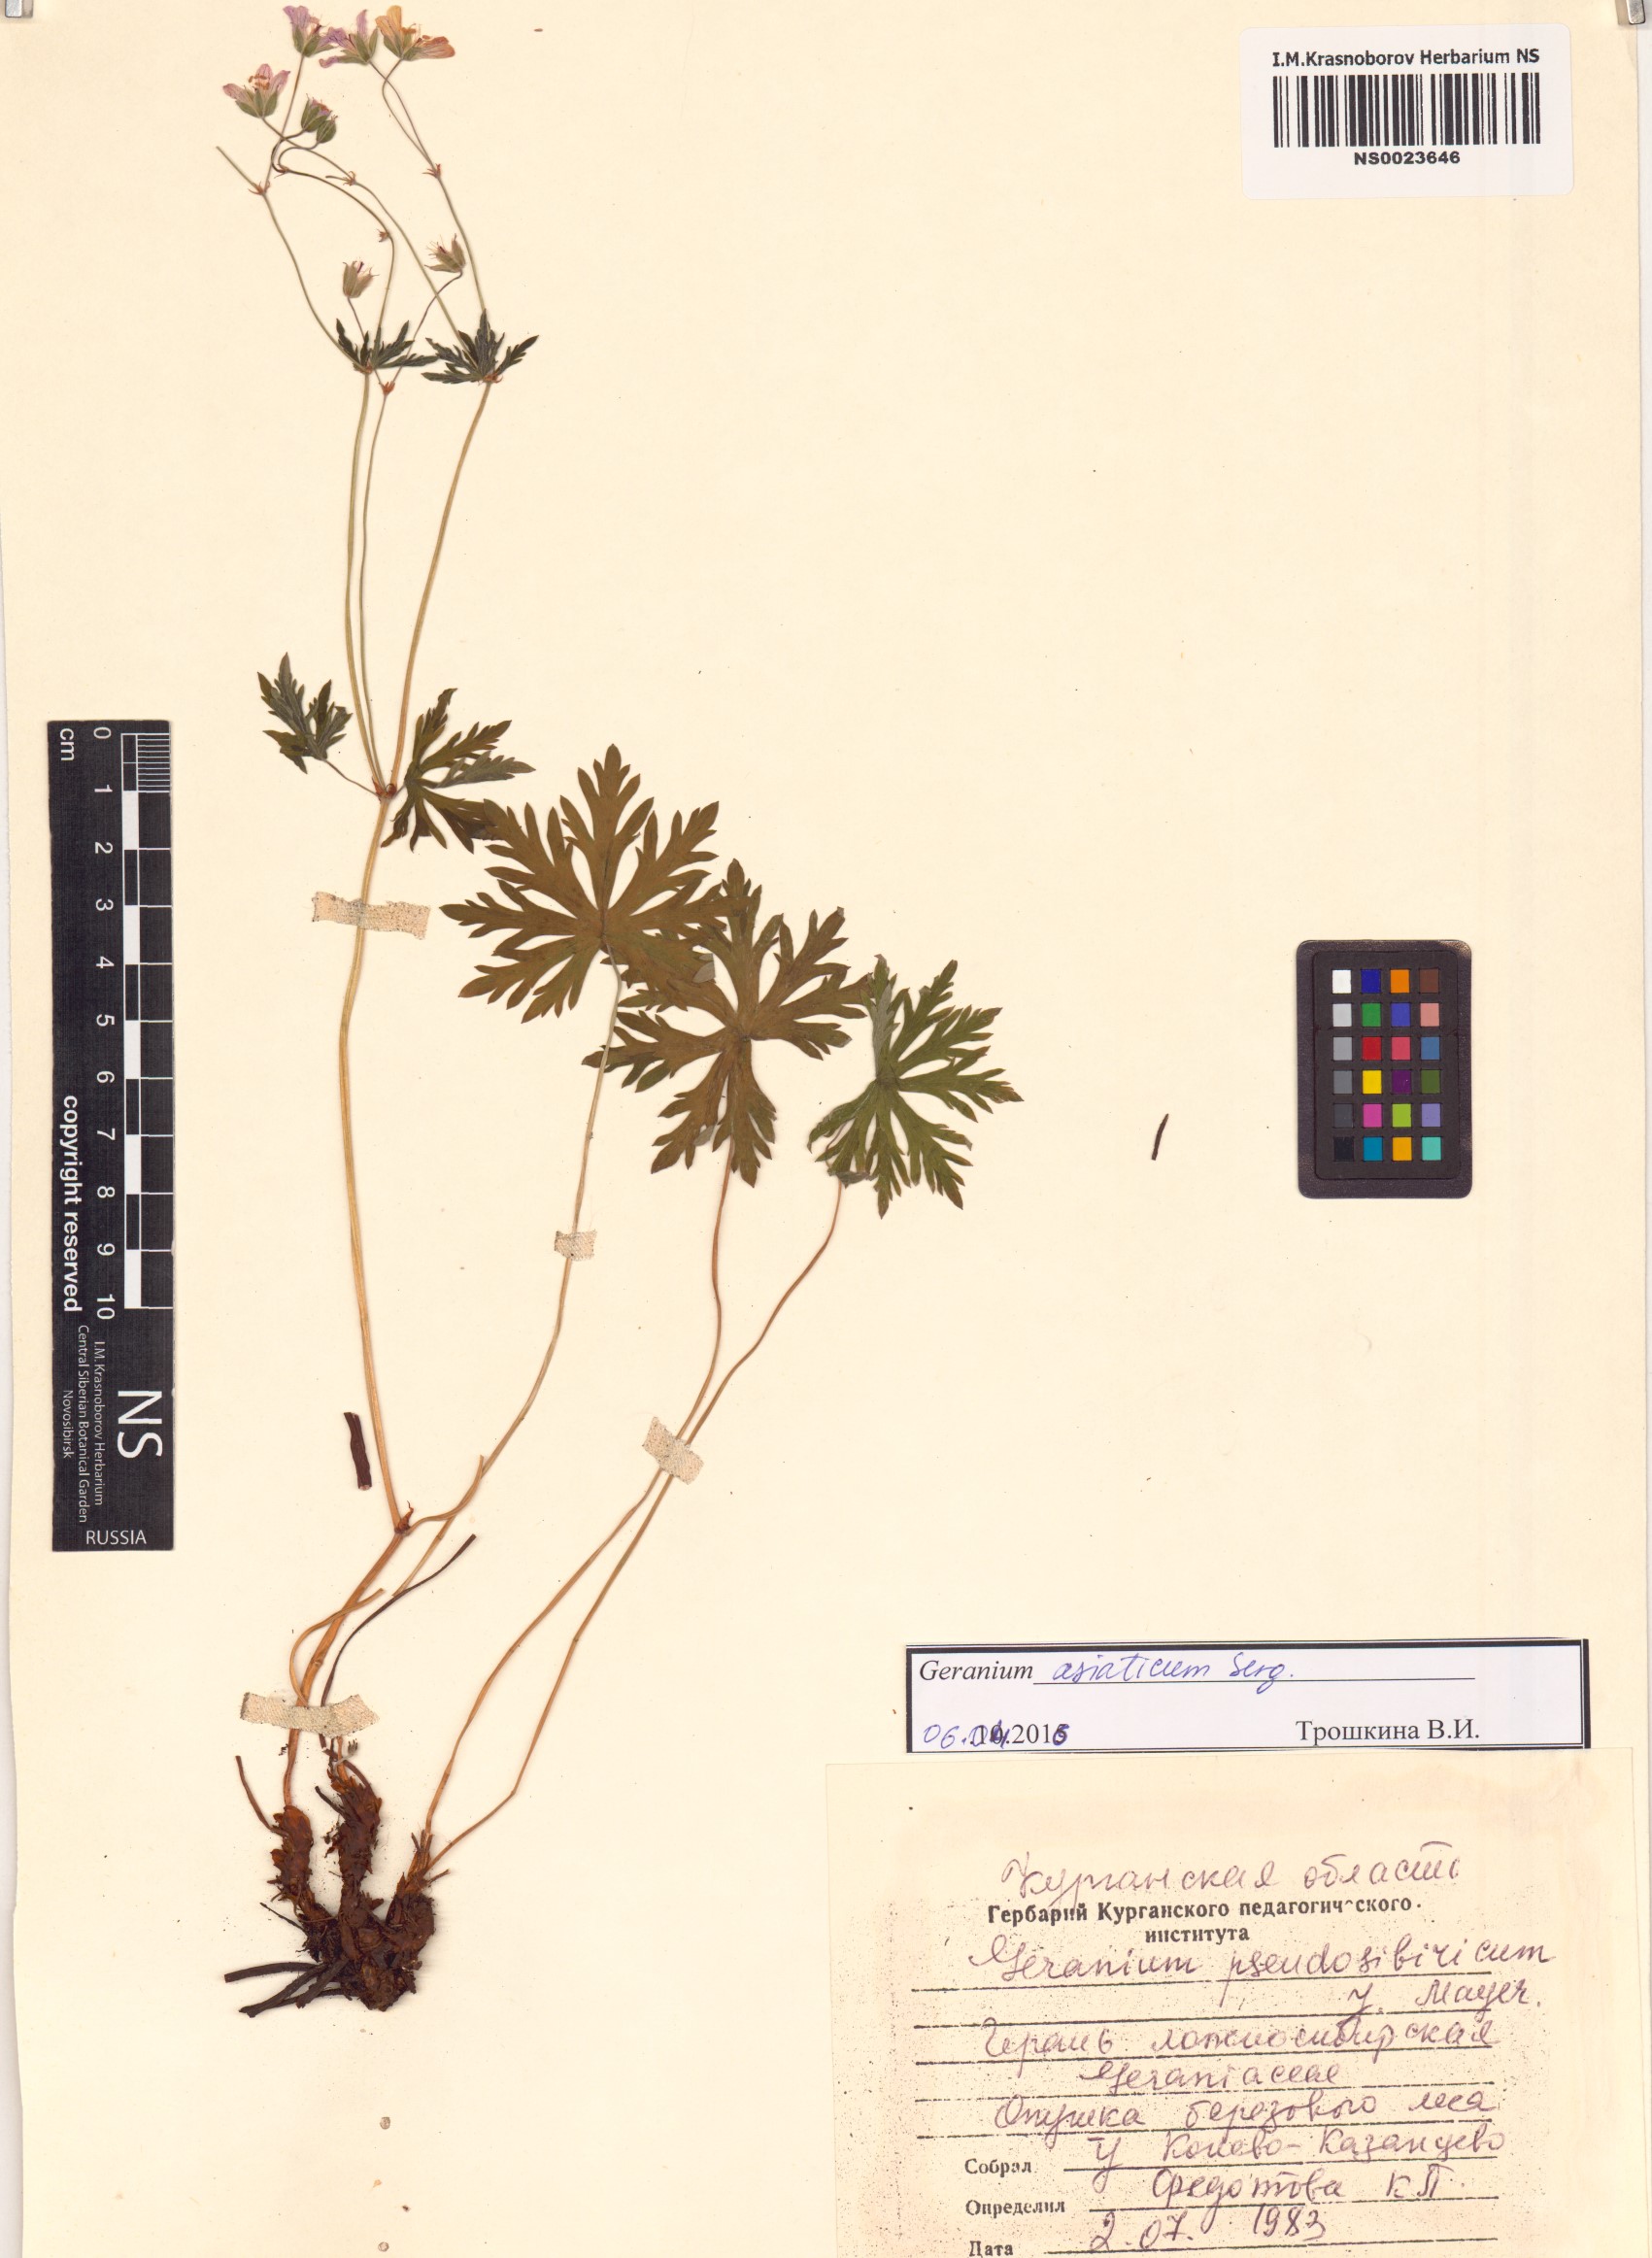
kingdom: Plantae
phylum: Tracheophyta
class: Magnoliopsida
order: Geraniales
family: Geraniaceae
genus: Geranium
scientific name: Geranium pseudosibiricum
